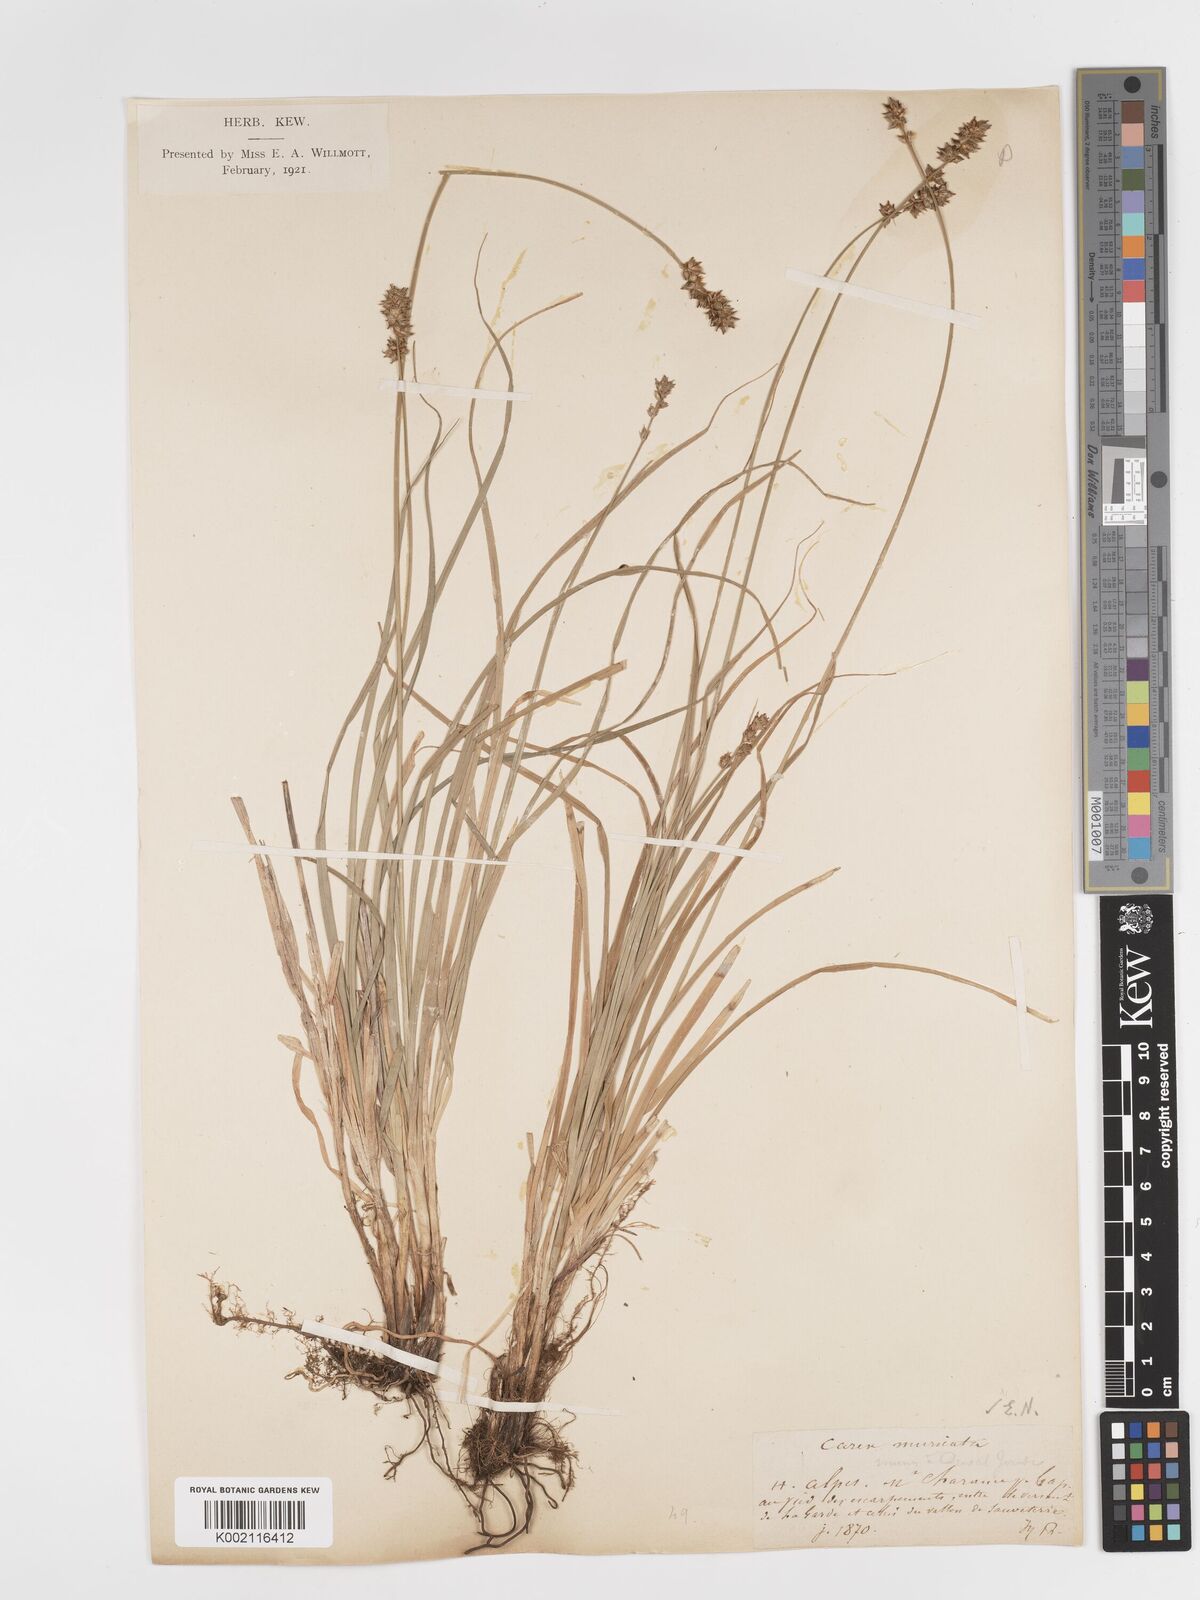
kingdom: Plantae
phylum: Tracheophyta
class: Liliopsida
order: Poales
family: Cyperaceae
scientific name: Cyperaceae
